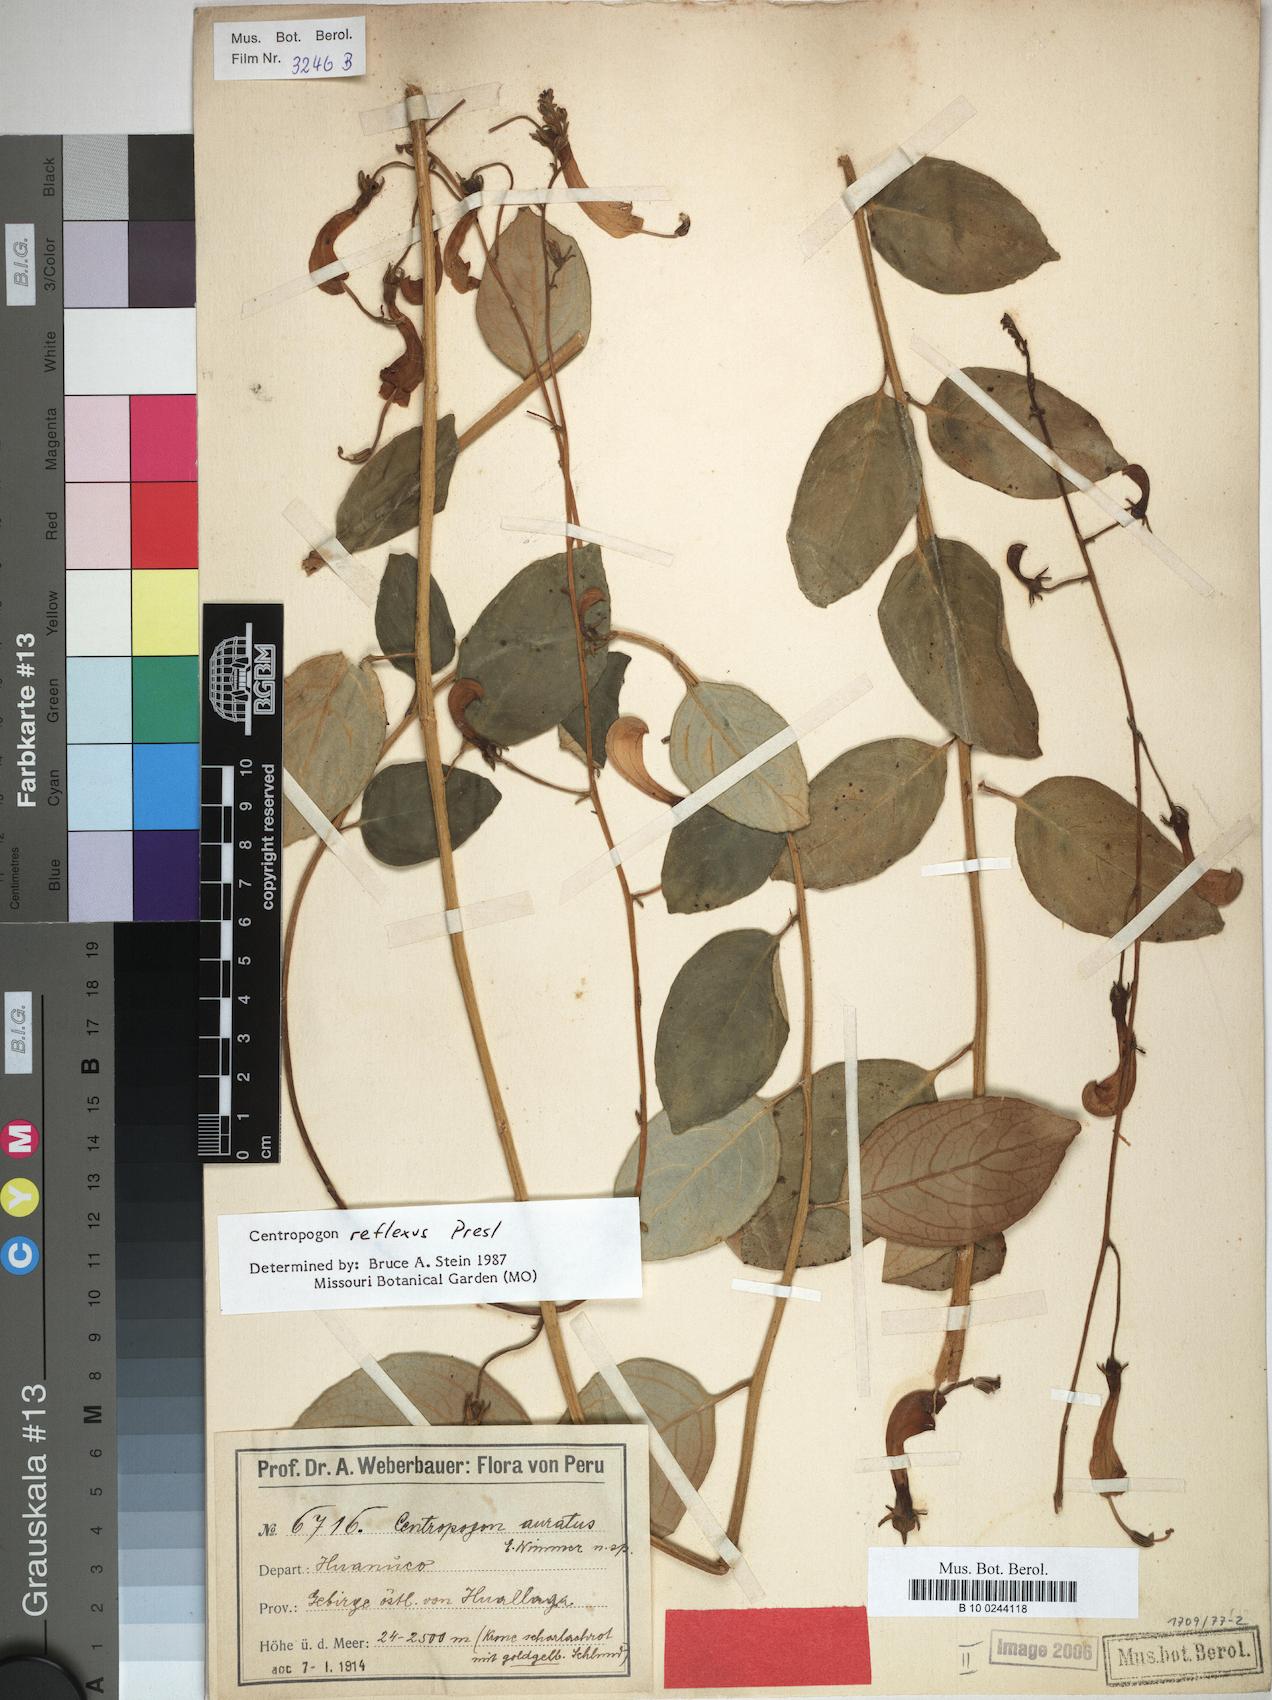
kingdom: Plantae
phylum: Tracheophyta
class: Magnoliopsida
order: Asterales
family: Campanulaceae
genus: Centropogon
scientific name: Centropogon reflexus
